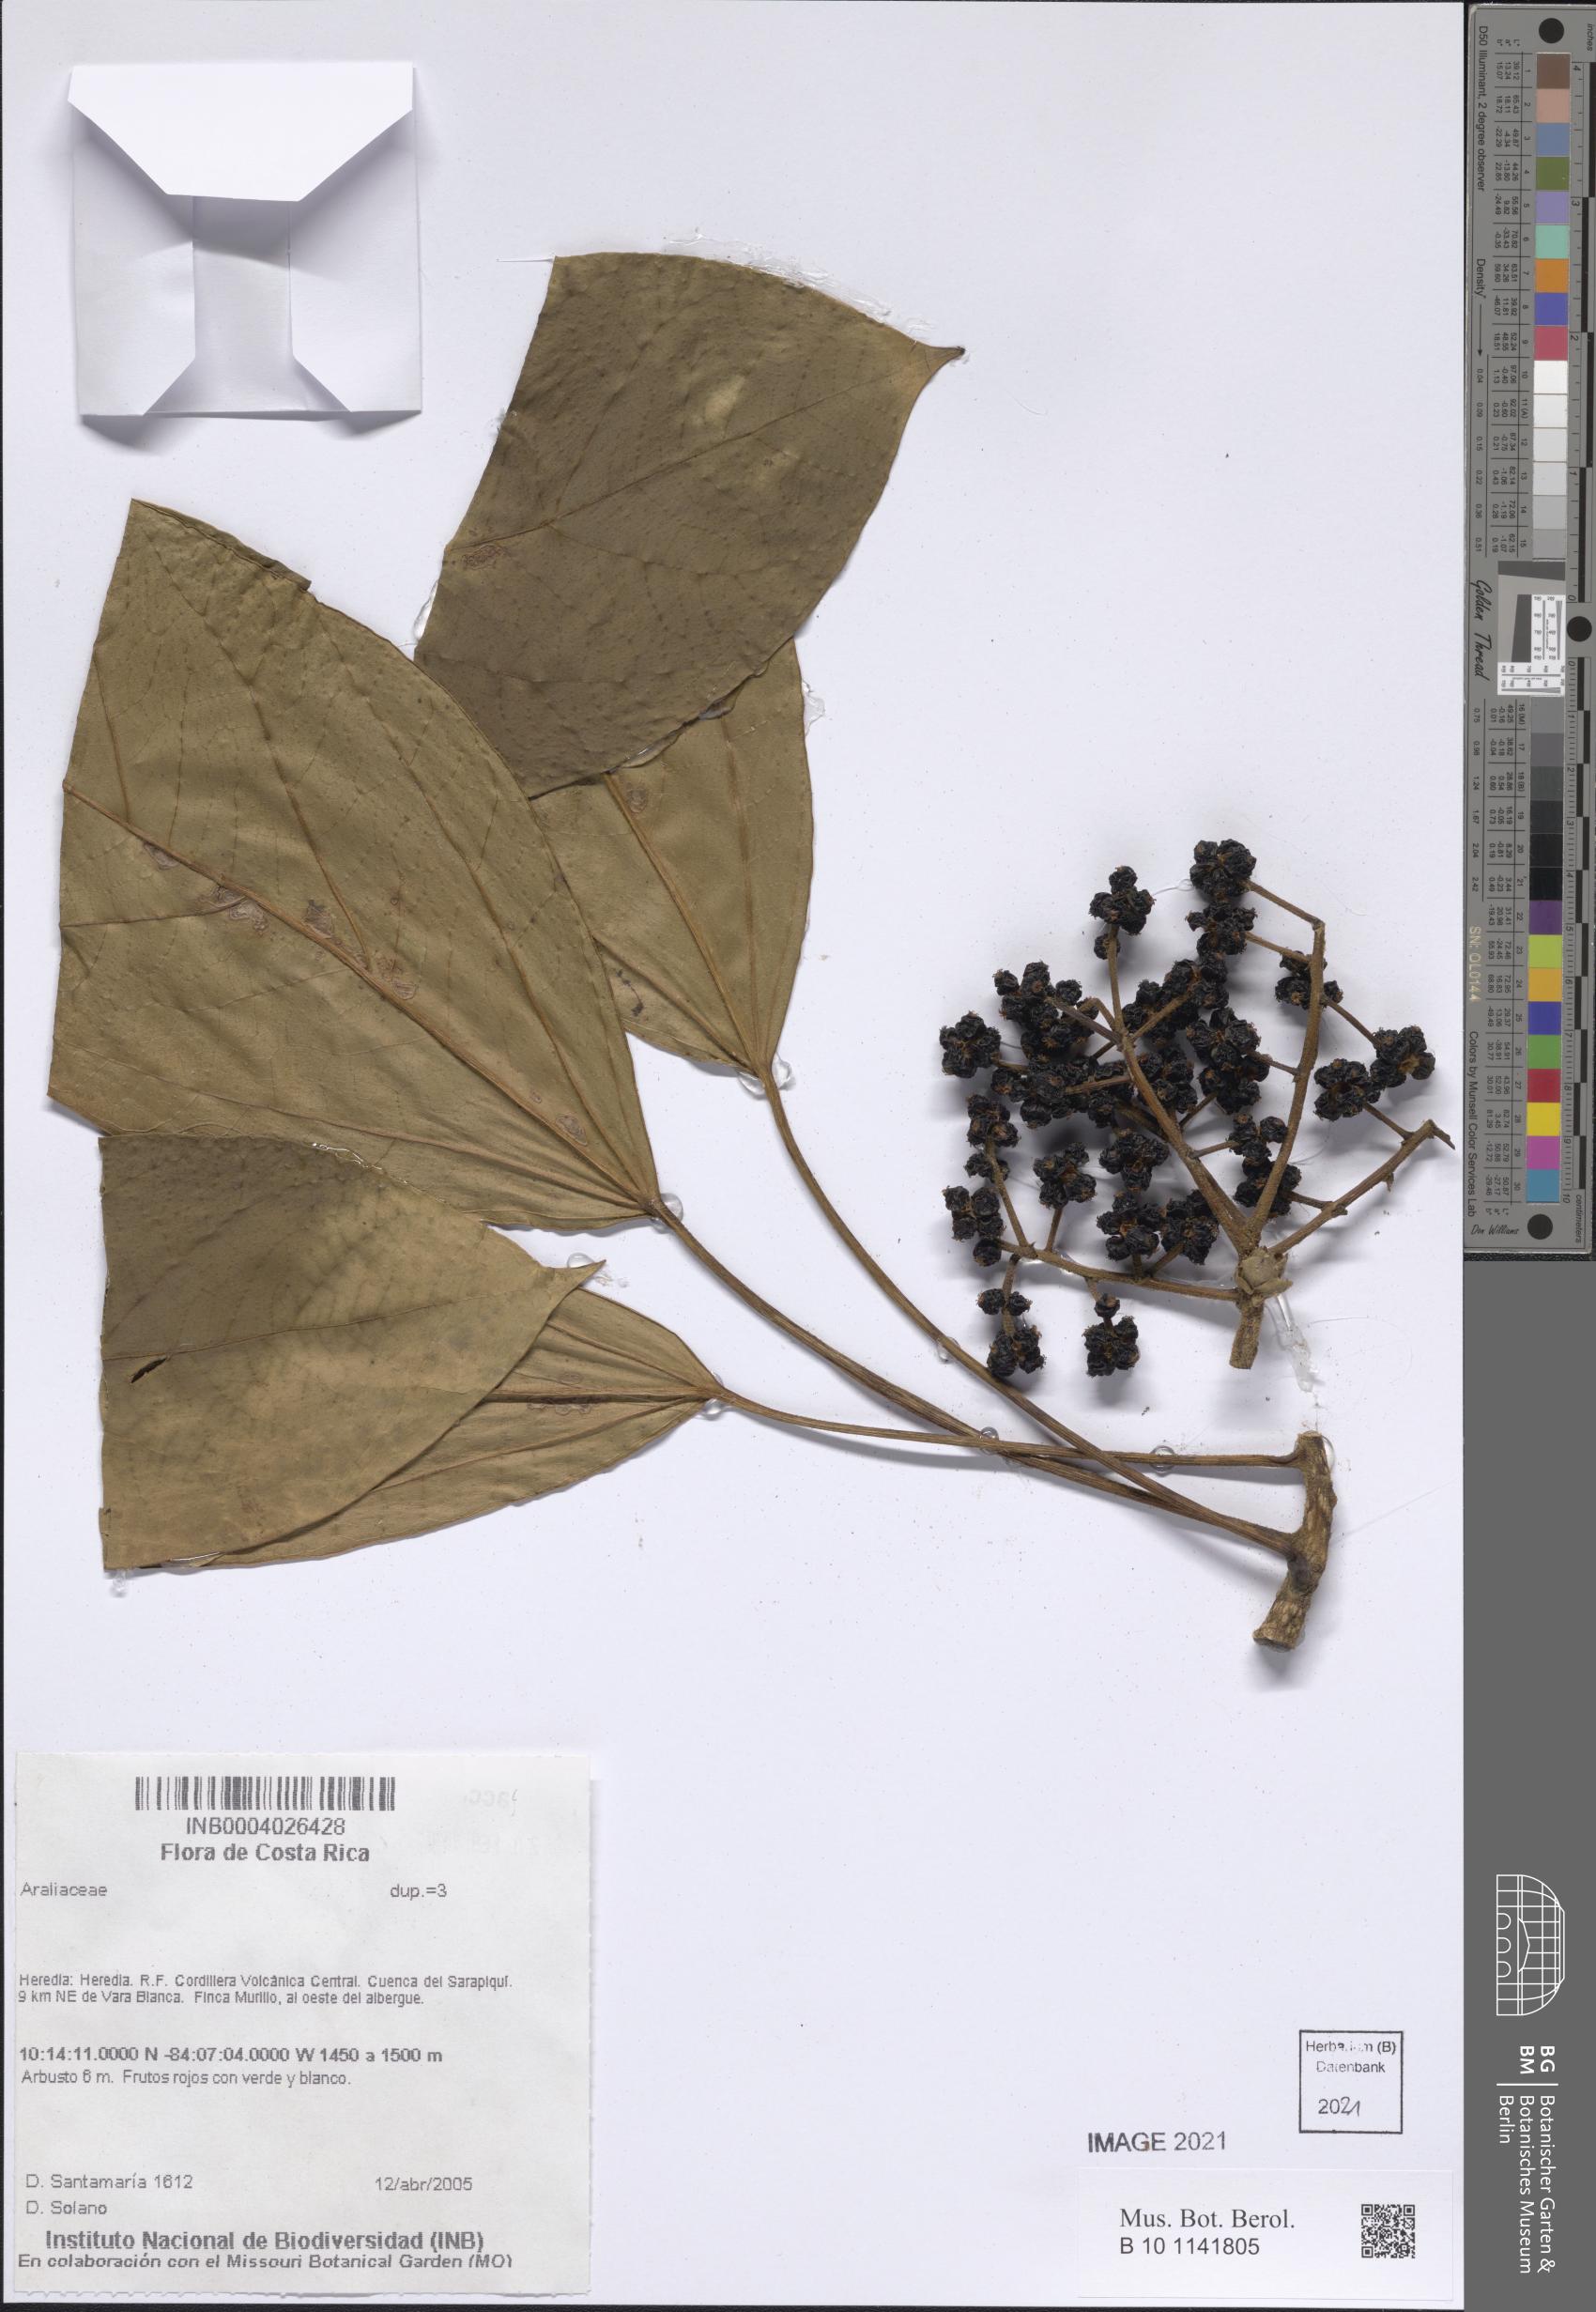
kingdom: Plantae
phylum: Tracheophyta
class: Magnoliopsida
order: Apiales
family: Araliaceae
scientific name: Araliaceae
